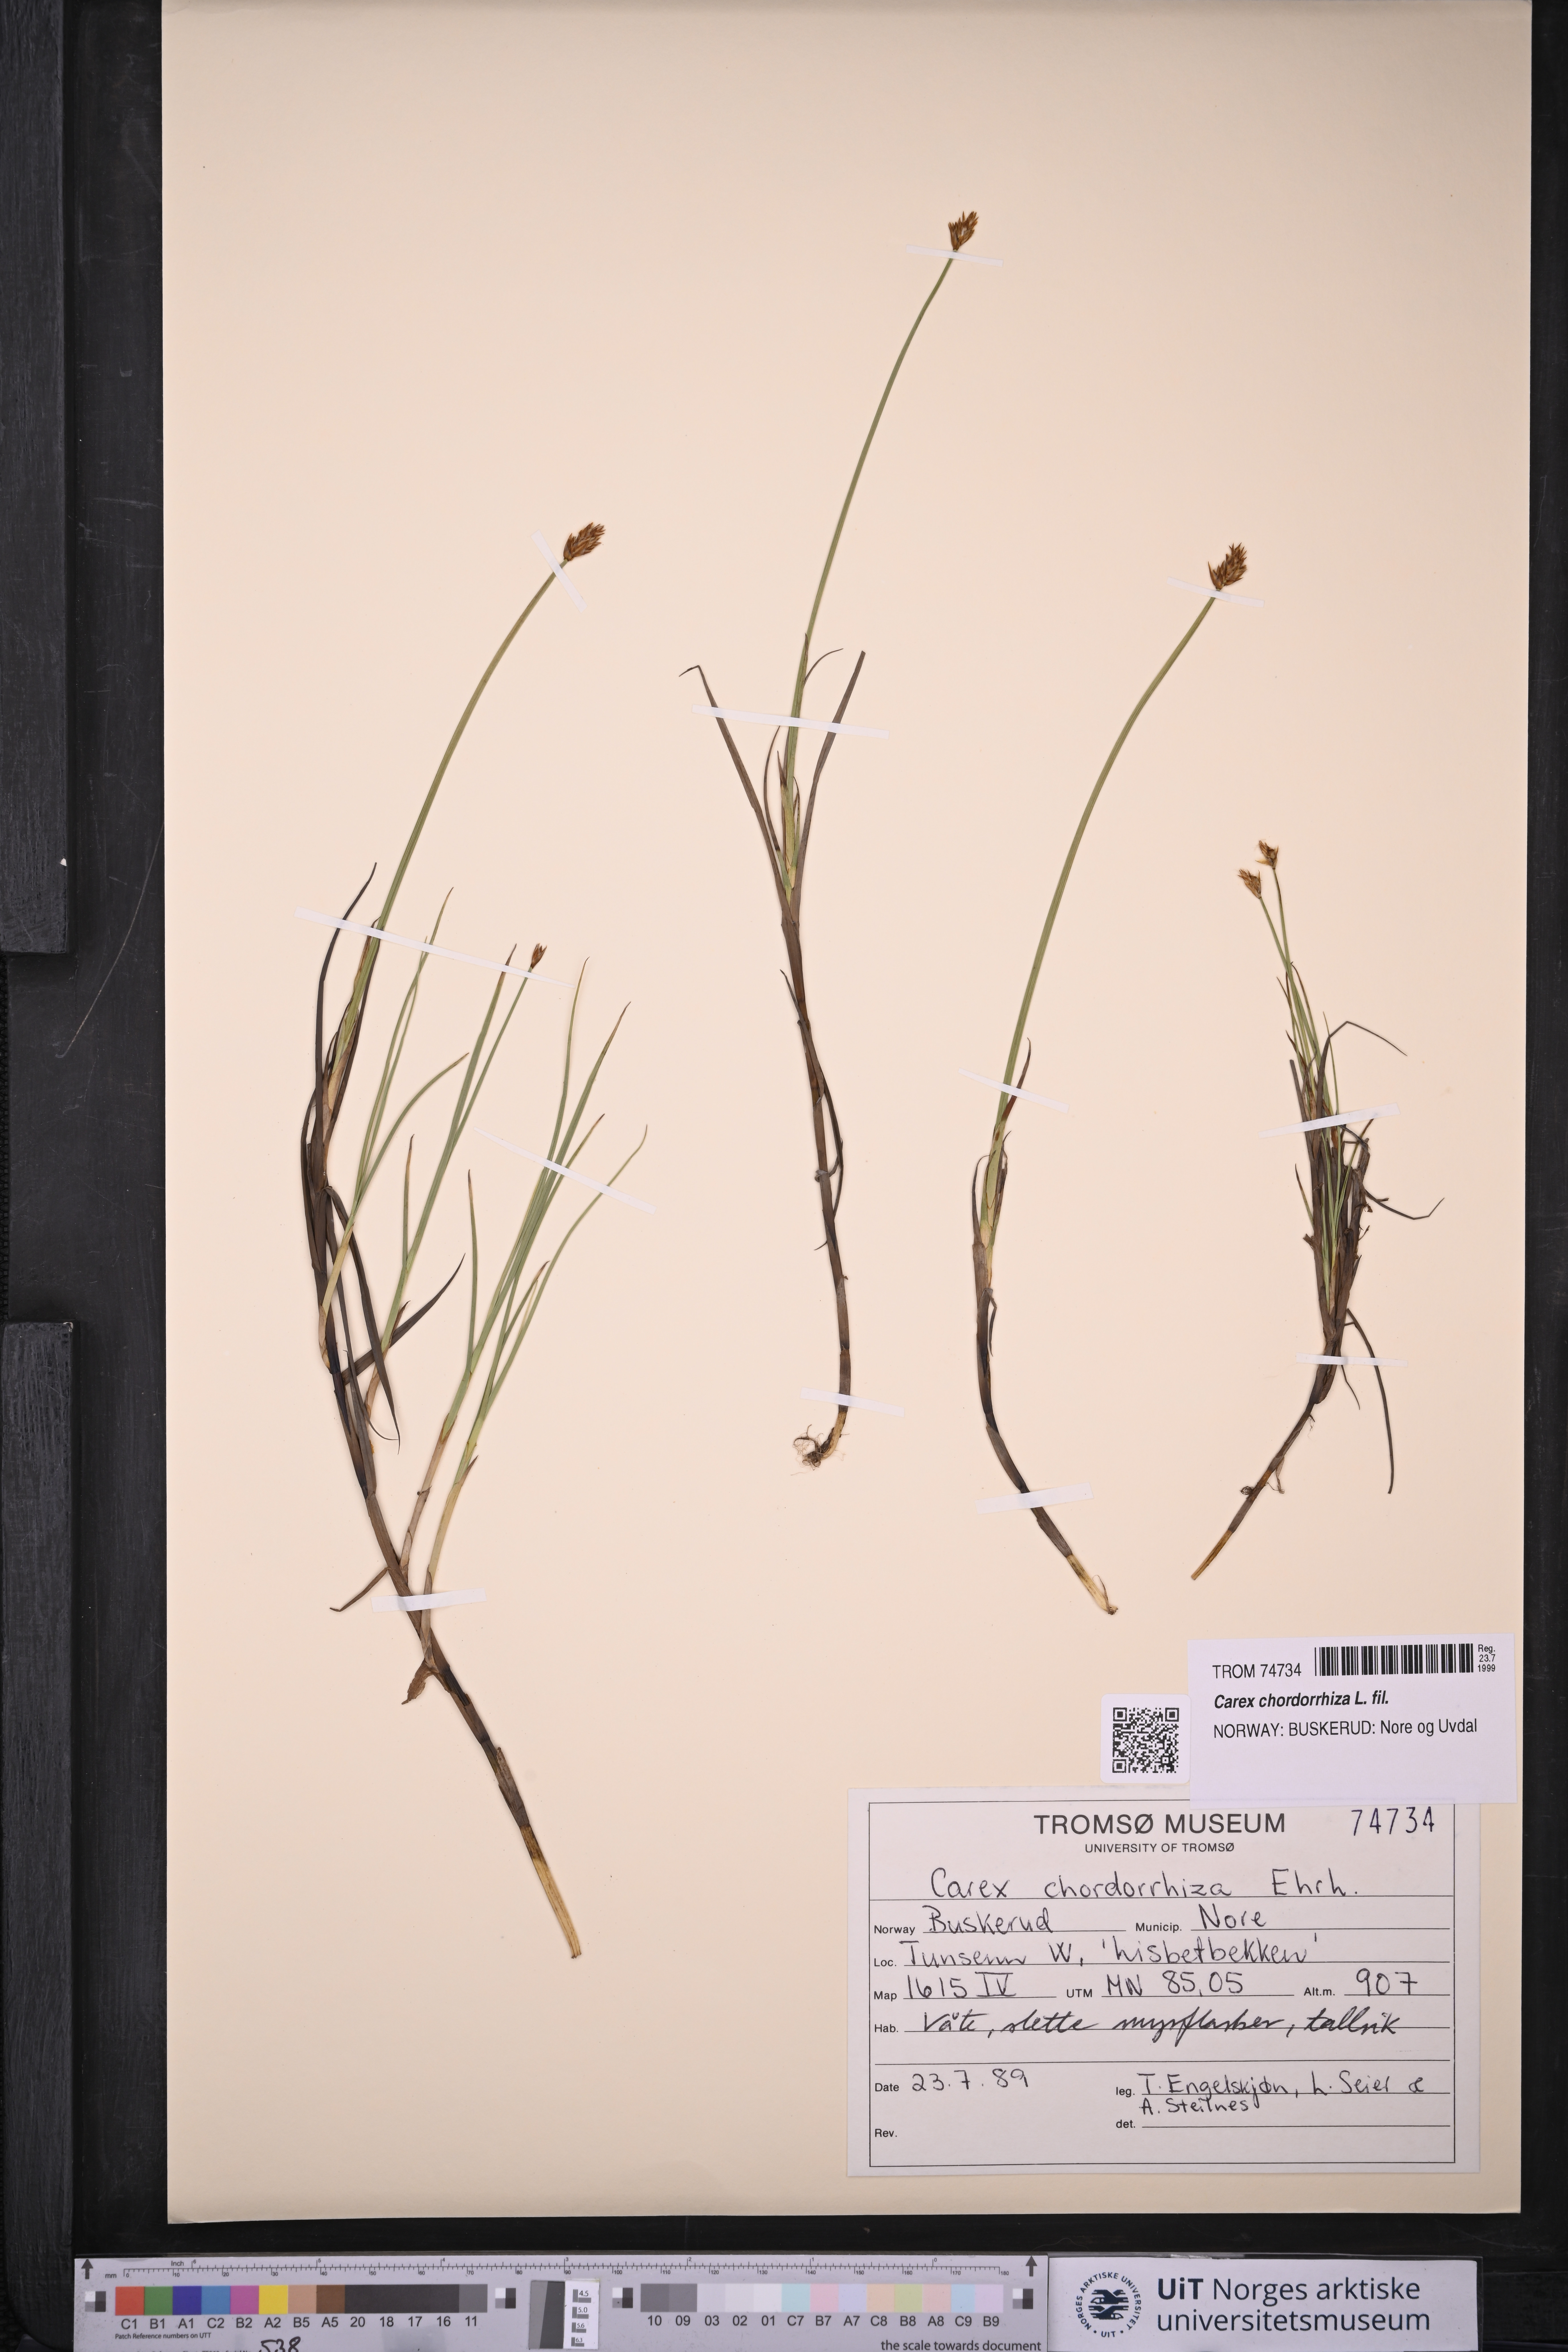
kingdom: Plantae
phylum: Tracheophyta
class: Liliopsida
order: Poales
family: Cyperaceae
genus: Carex
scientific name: Carex chordorrhiza
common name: String sedge
